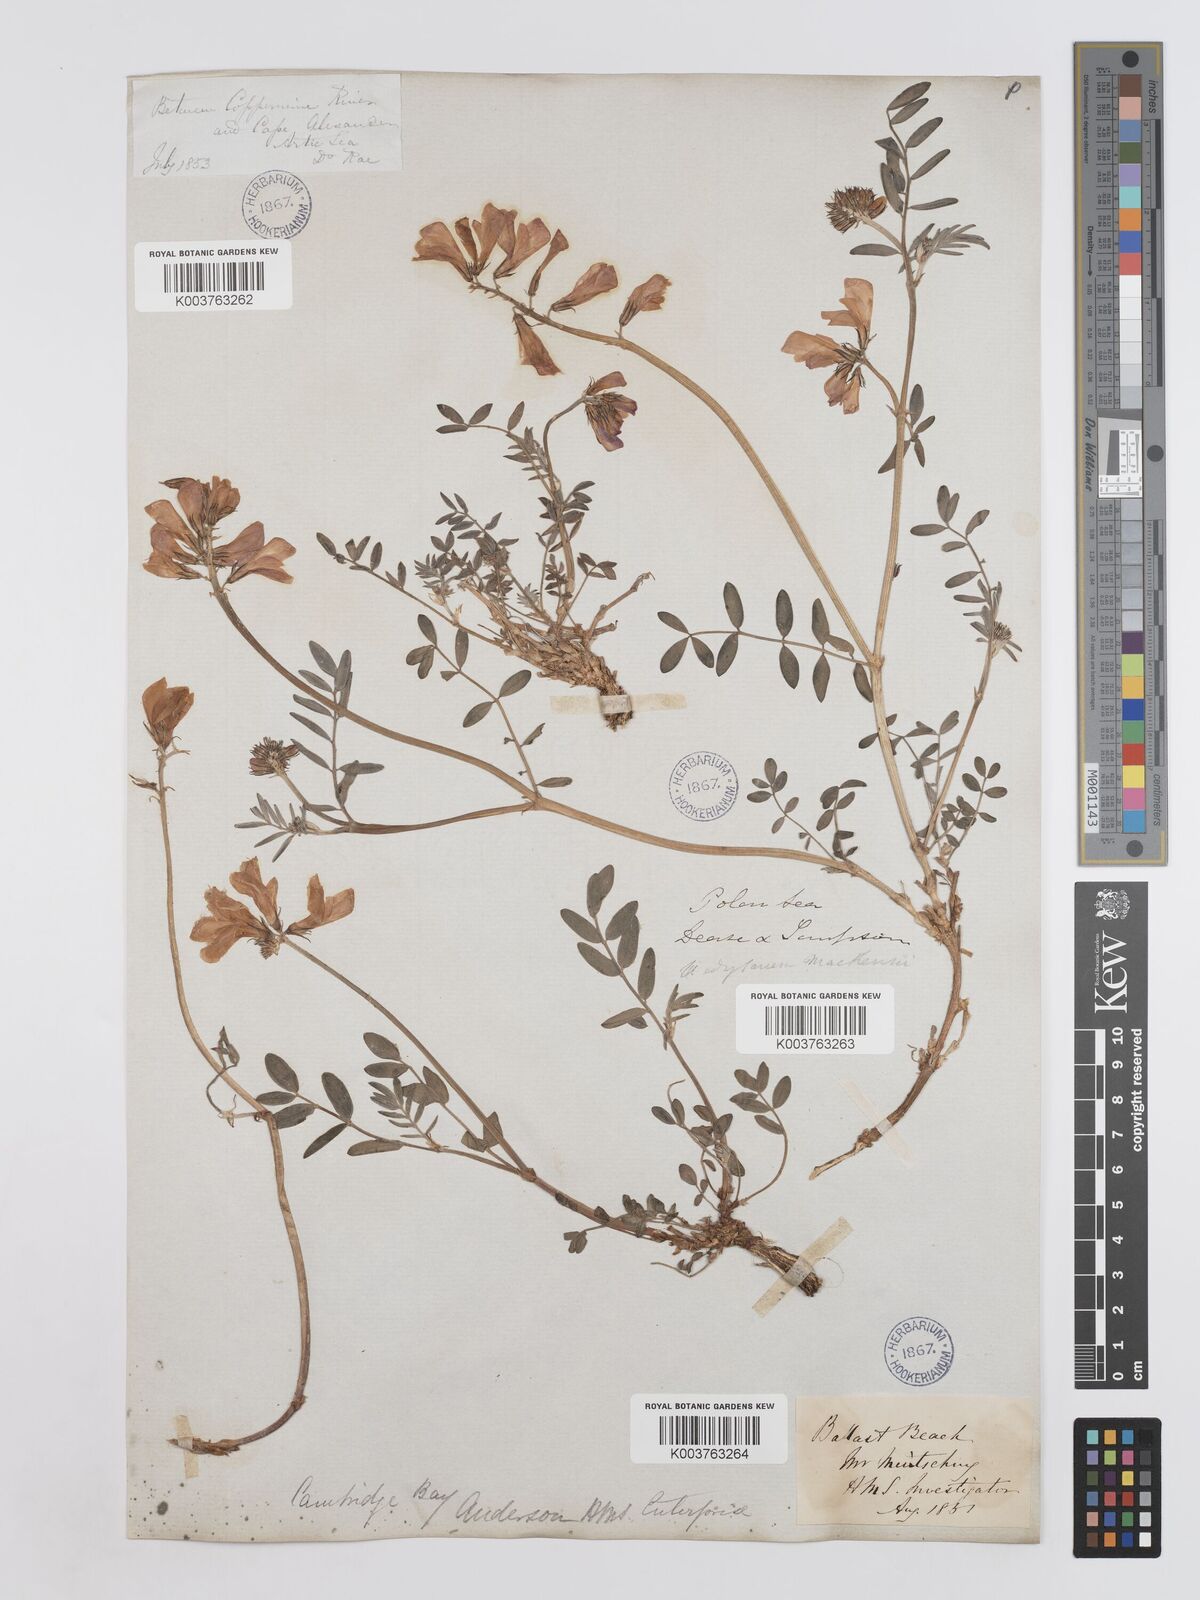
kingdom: Plantae
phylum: Tracheophyta
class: Magnoliopsida
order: Fabales
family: Fabaceae
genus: Hedysarum
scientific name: Hedysarum boreale
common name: Northern sweet-vetch
